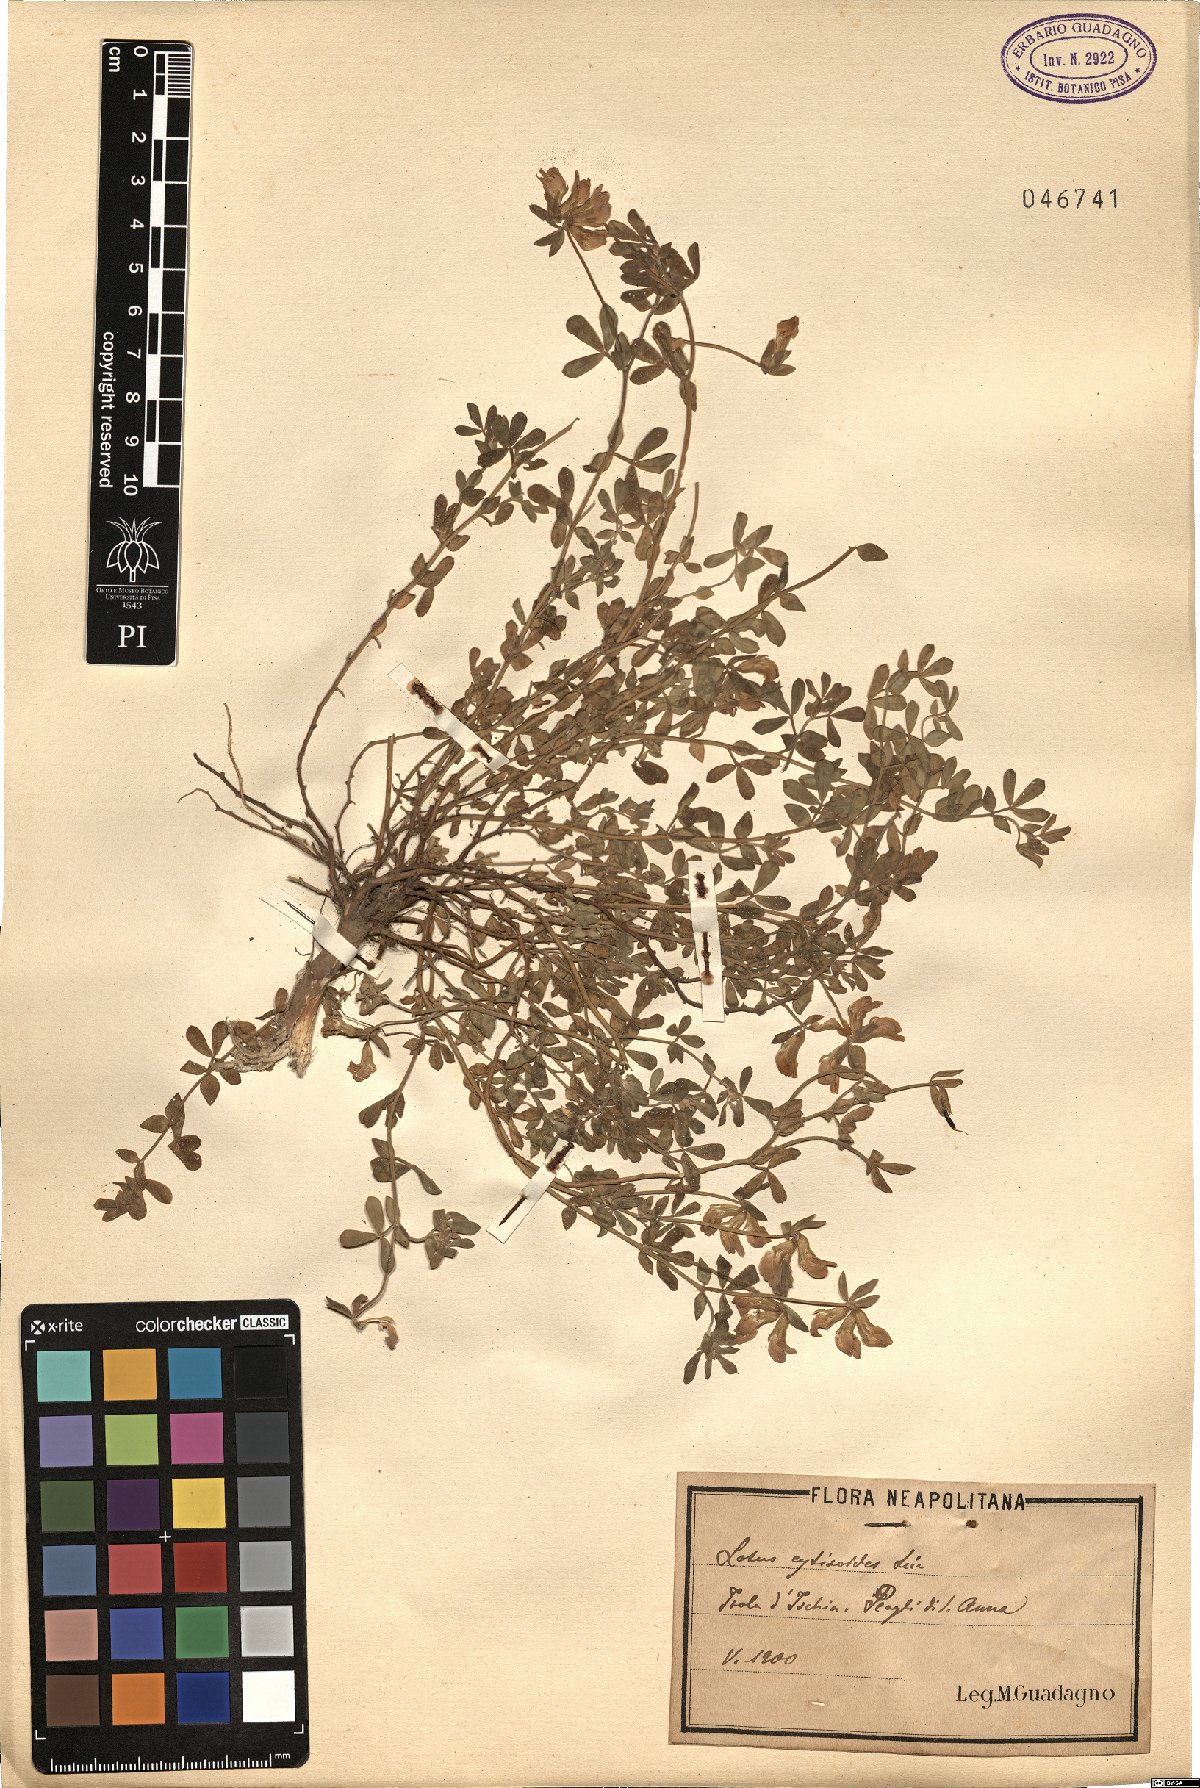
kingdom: Plantae
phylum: Tracheophyta
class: Magnoliopsida
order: Fabales
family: Fabaceae
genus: Lotus
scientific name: Lotus cytisoides
